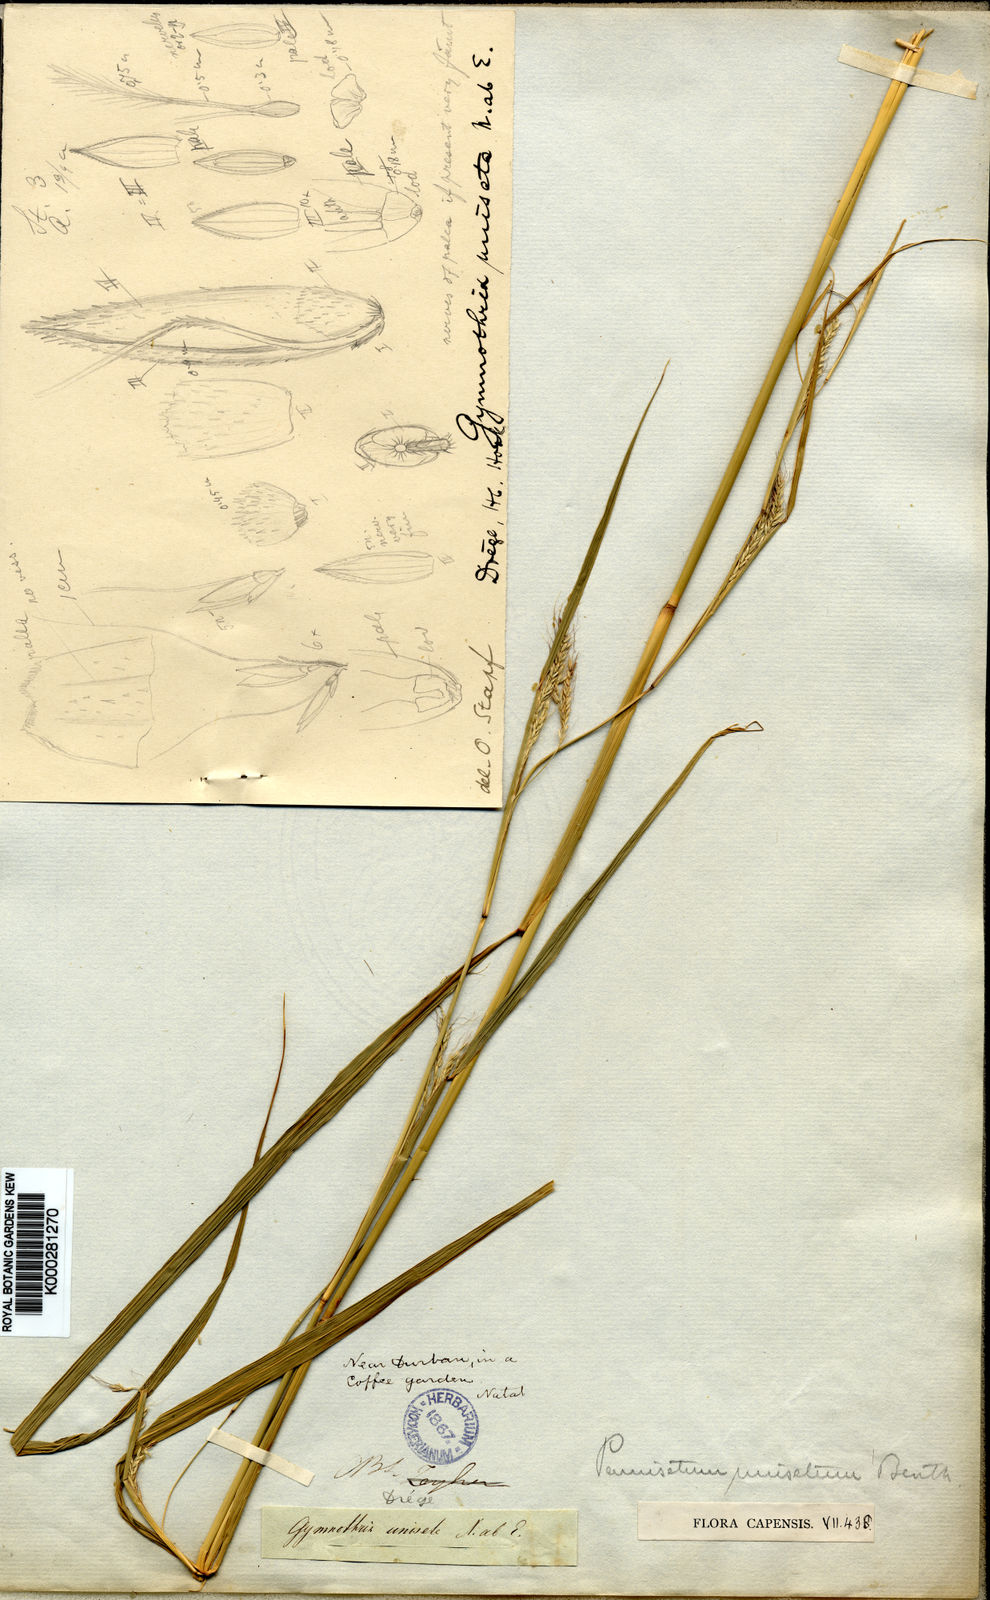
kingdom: Plantae
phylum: Tracheophyta
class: Liliopsida
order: Poales
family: Poaceae
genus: Cenchrus
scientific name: Cenchrus unisetus
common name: Natal grass
